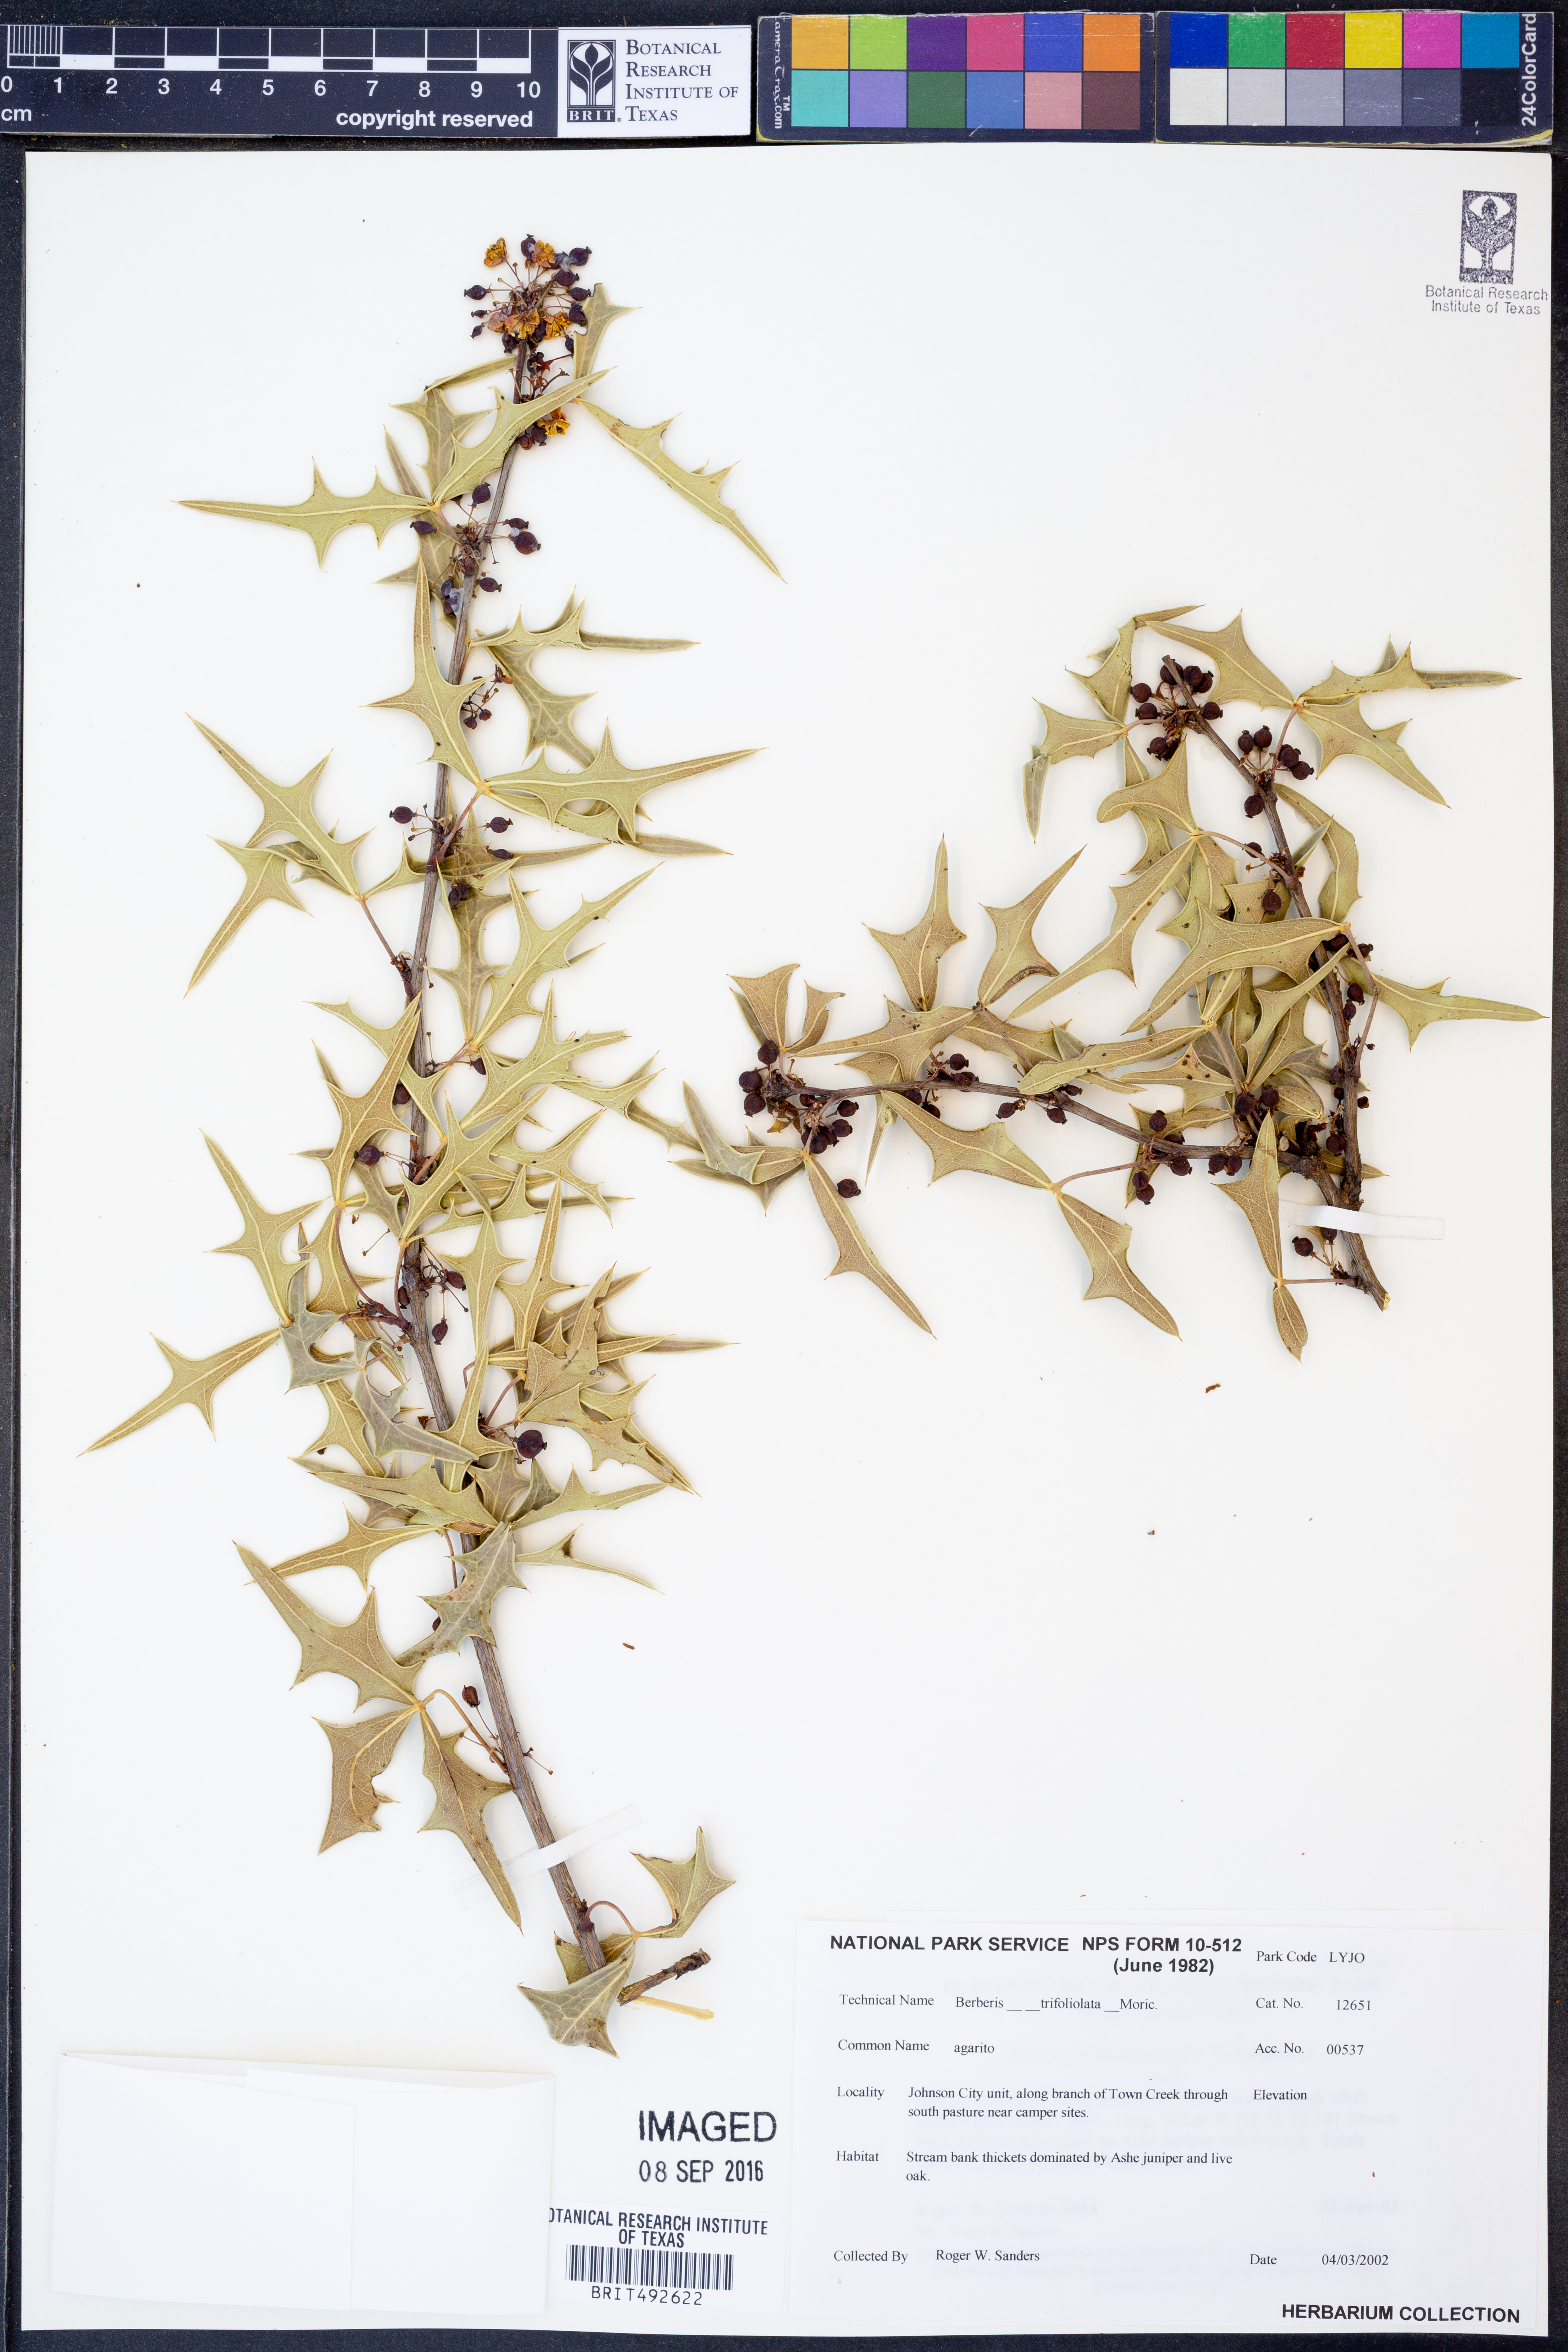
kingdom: Plantae
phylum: Tracheophyta
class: Magnoliopsida
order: Ranunculales
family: Berberidaceae
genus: Alloberberis
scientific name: Alloberberis trifoliolata
